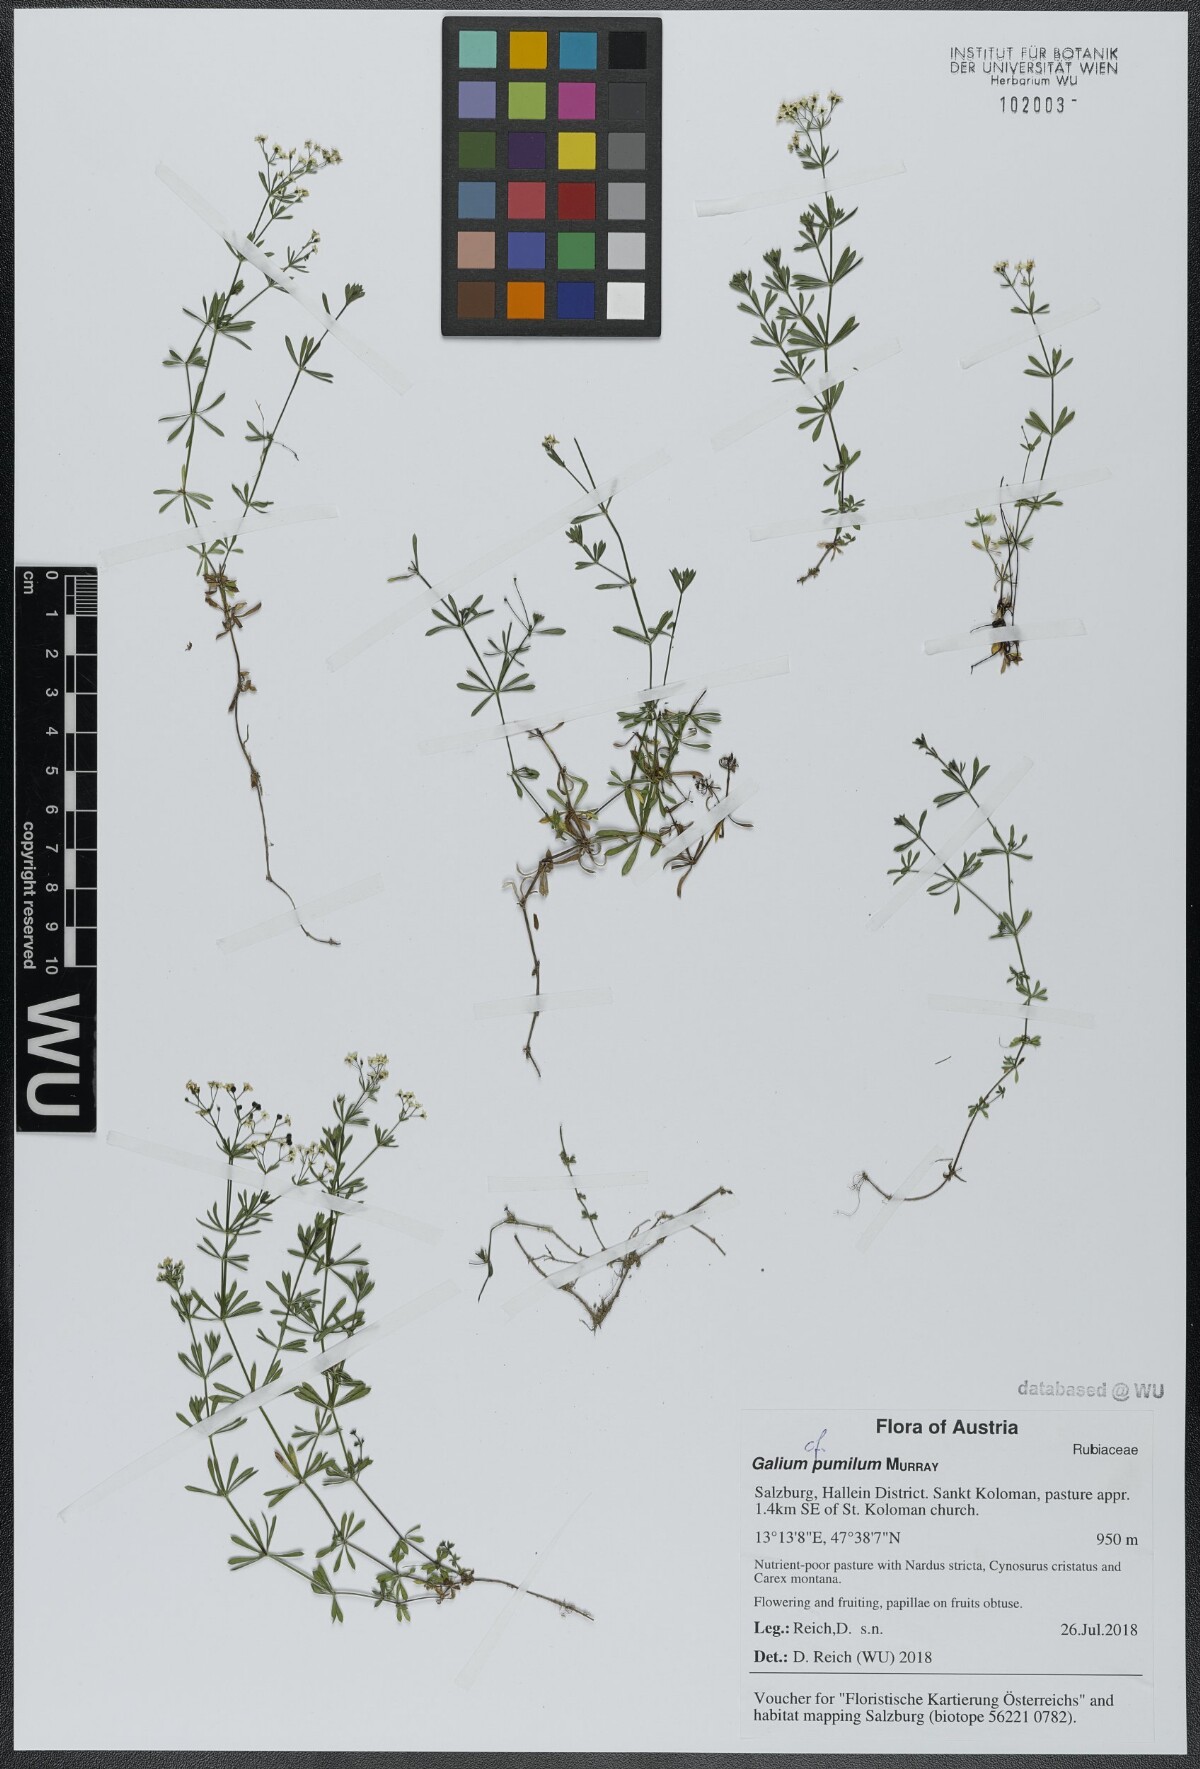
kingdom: Plantae
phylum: Tracheophyta
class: Magnoliopsida
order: Gentianales
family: Rubiaceae
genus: Galium
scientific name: Galium pumilum
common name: Slender bedstraw
